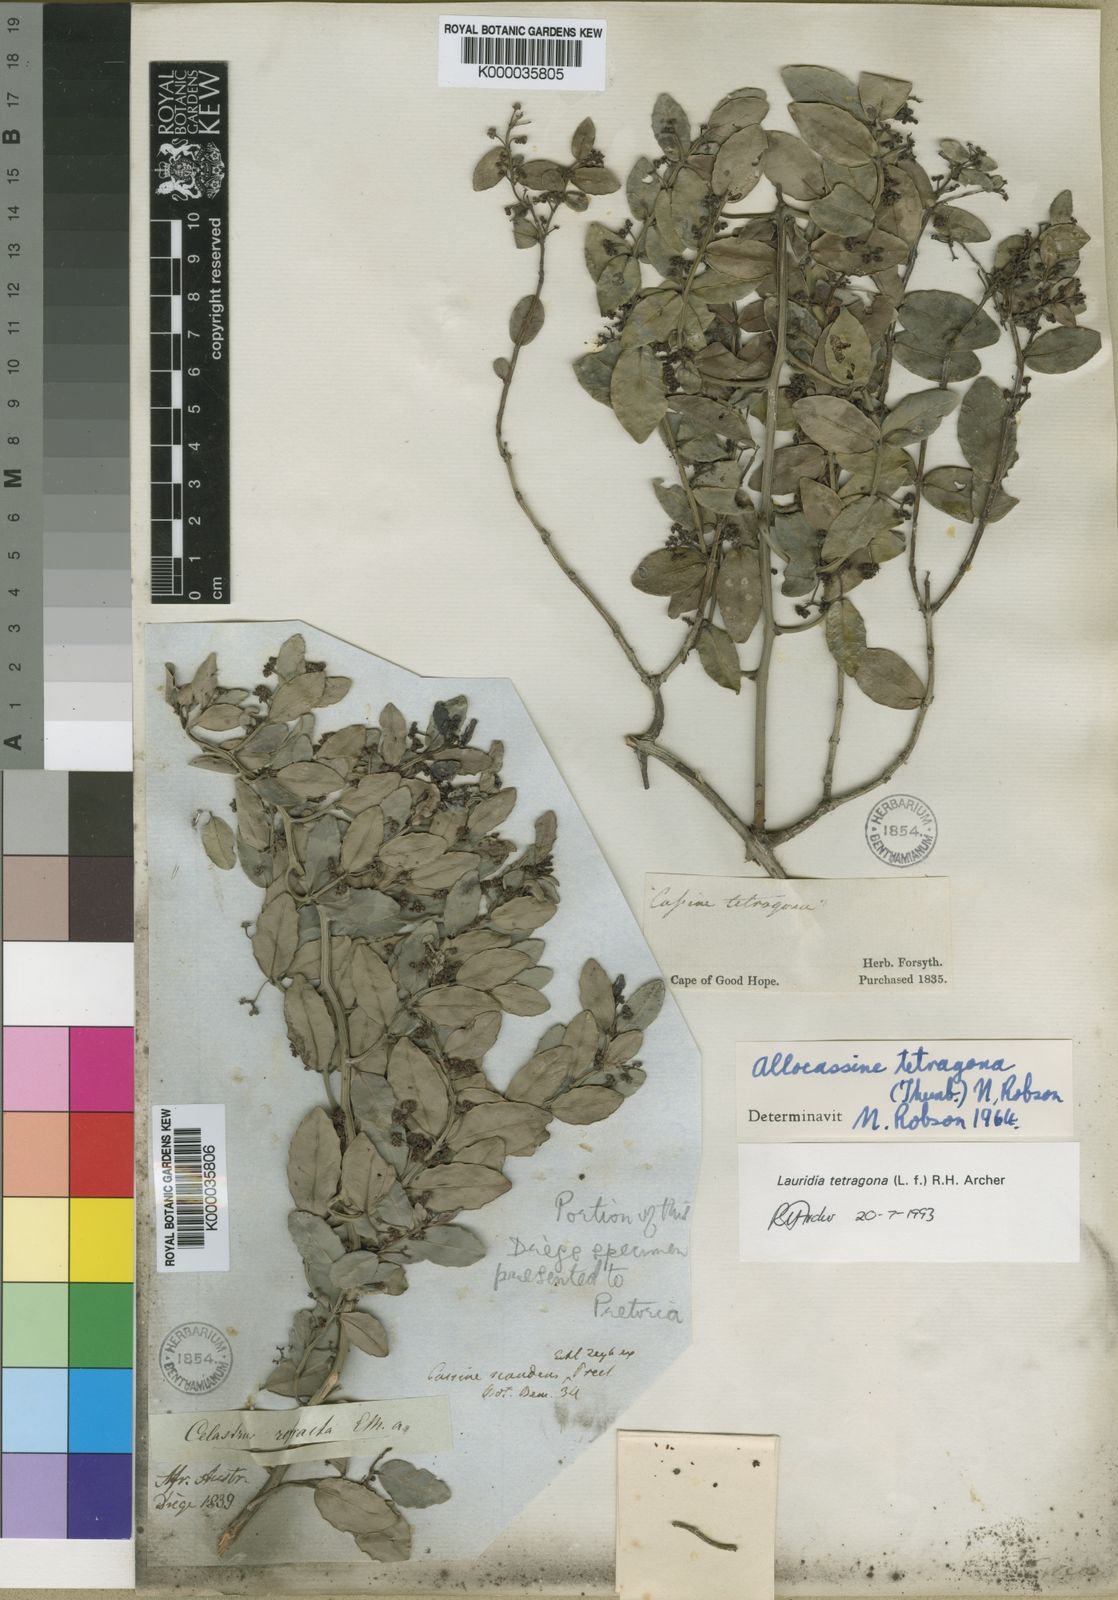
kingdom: Plantae
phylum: Tracheophyta
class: Magnoliopsida
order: Celastrales
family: Celastraceae
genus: Lauridia
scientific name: Lauridia tetragona
